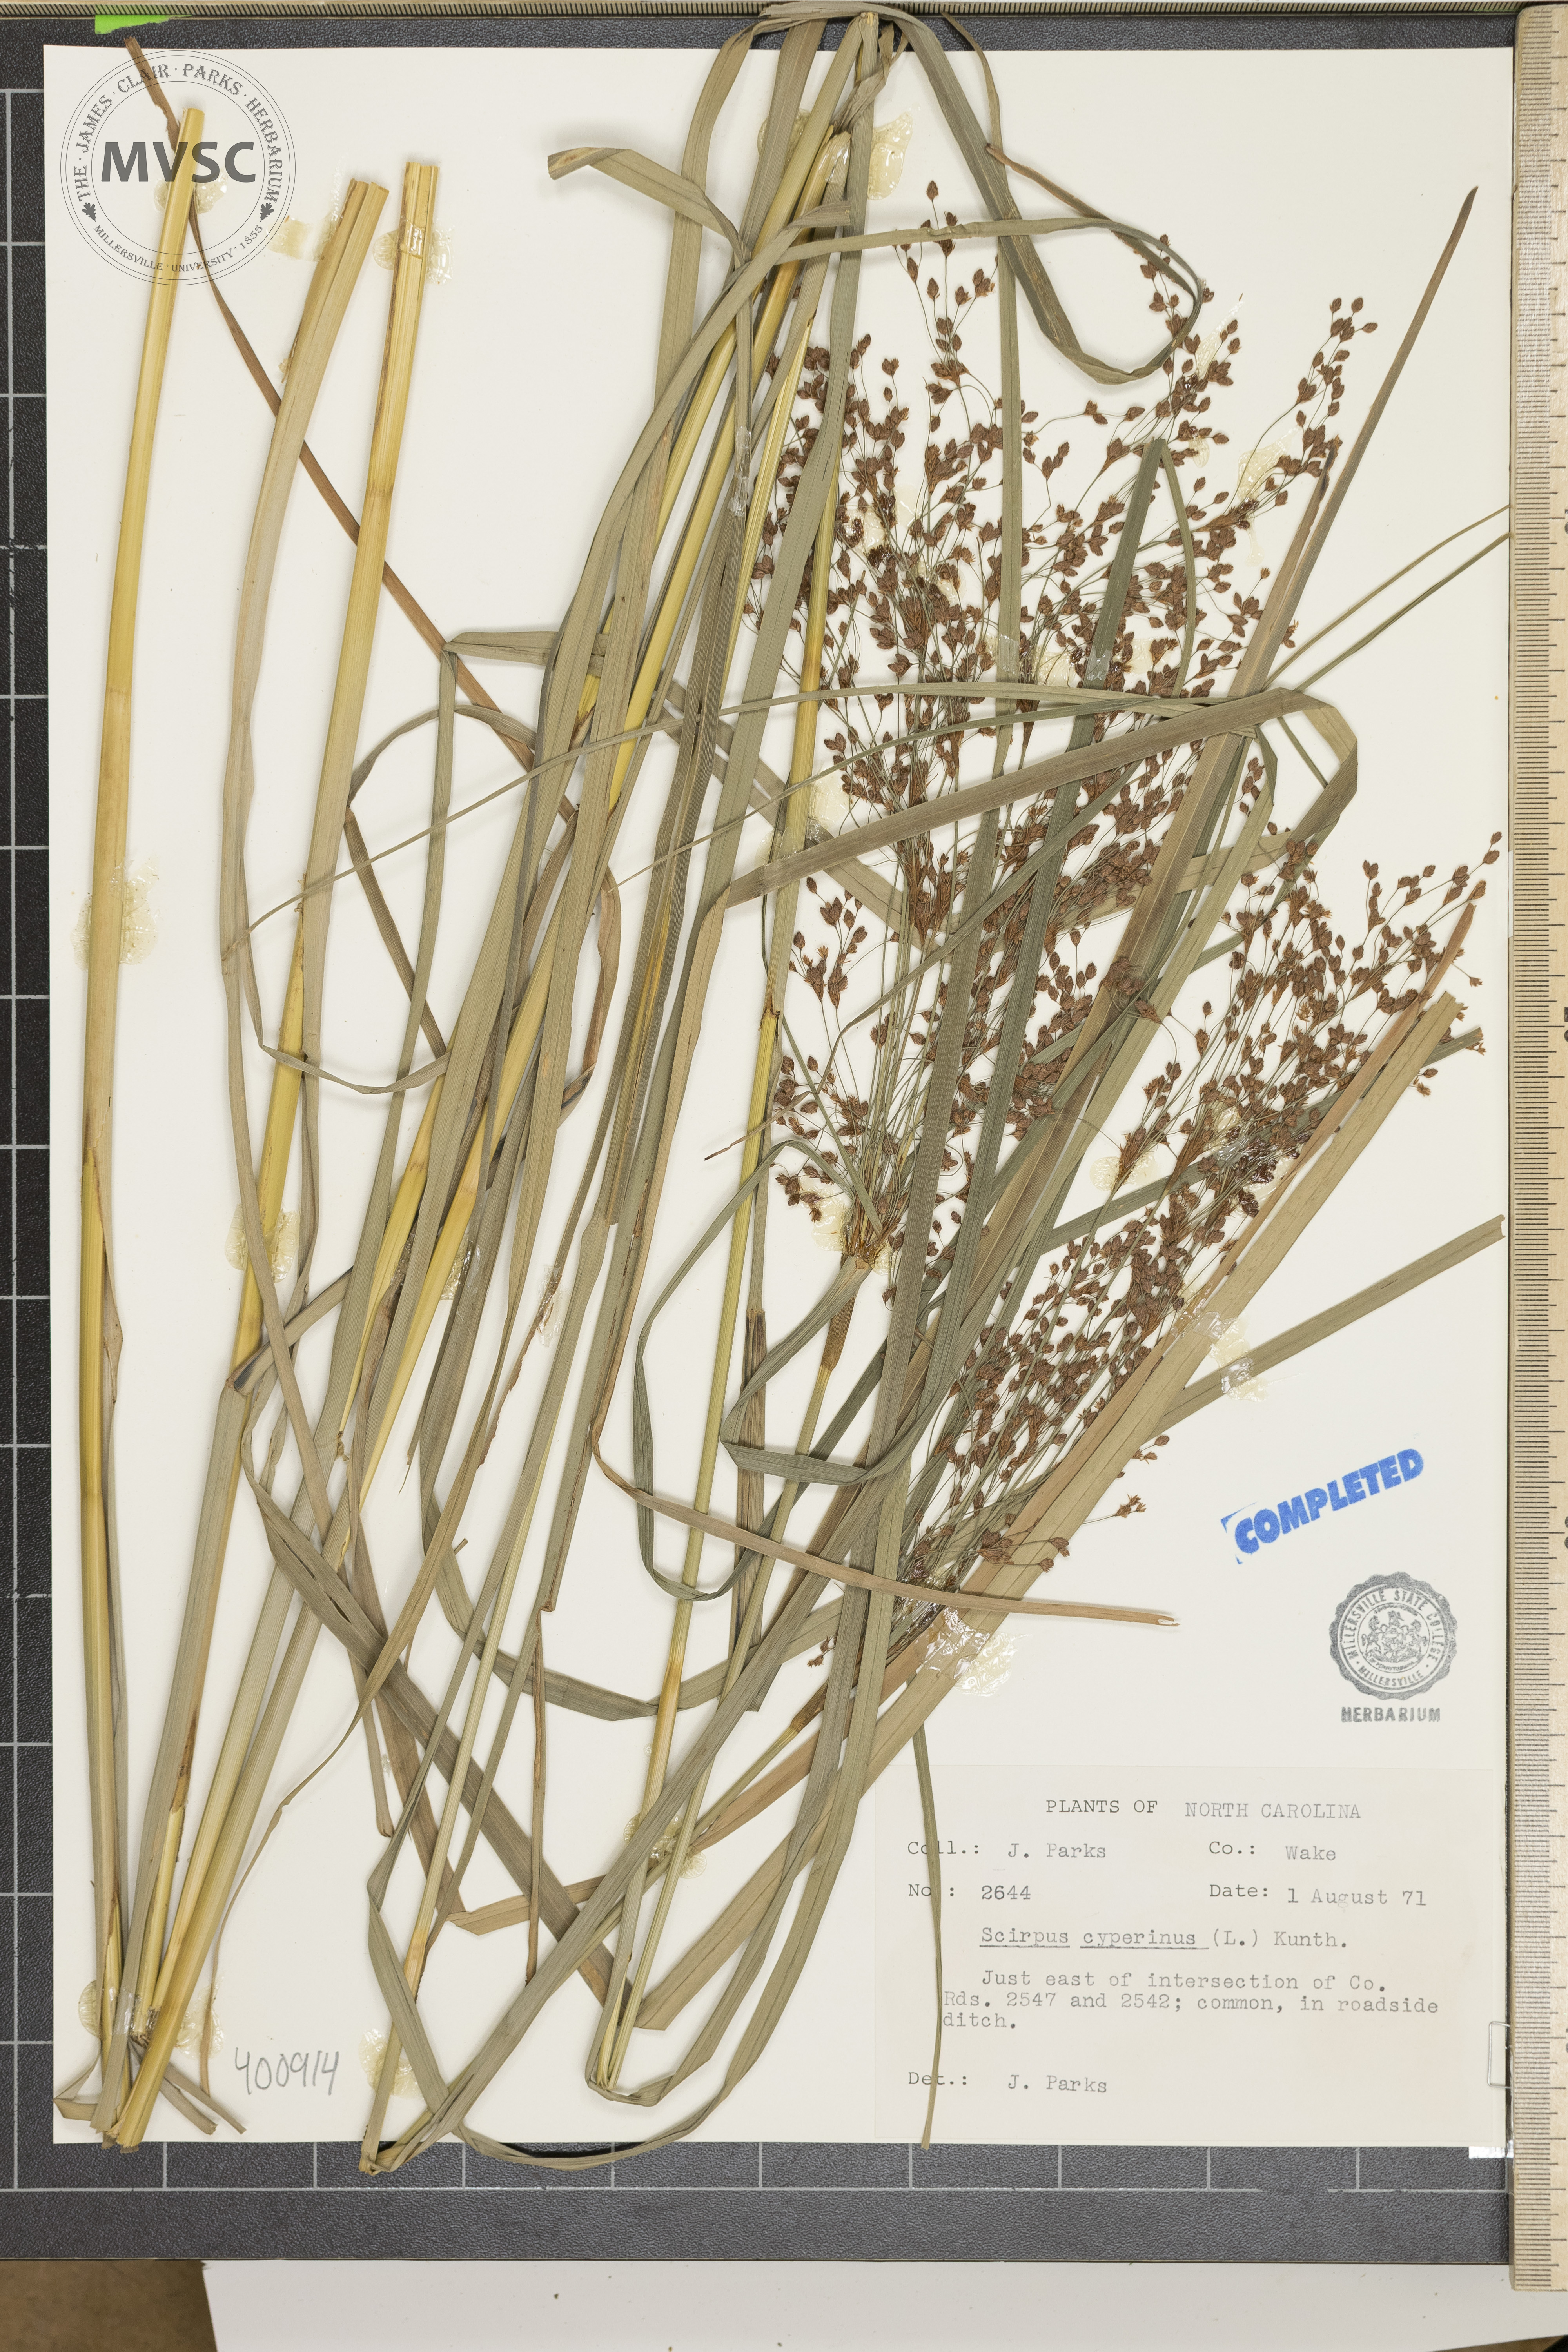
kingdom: Plantae
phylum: Tracheophyta
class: Liliopsida
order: Poales
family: Cyperaceae
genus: Scirpus
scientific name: Scirpus cyperinus
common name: sedge
